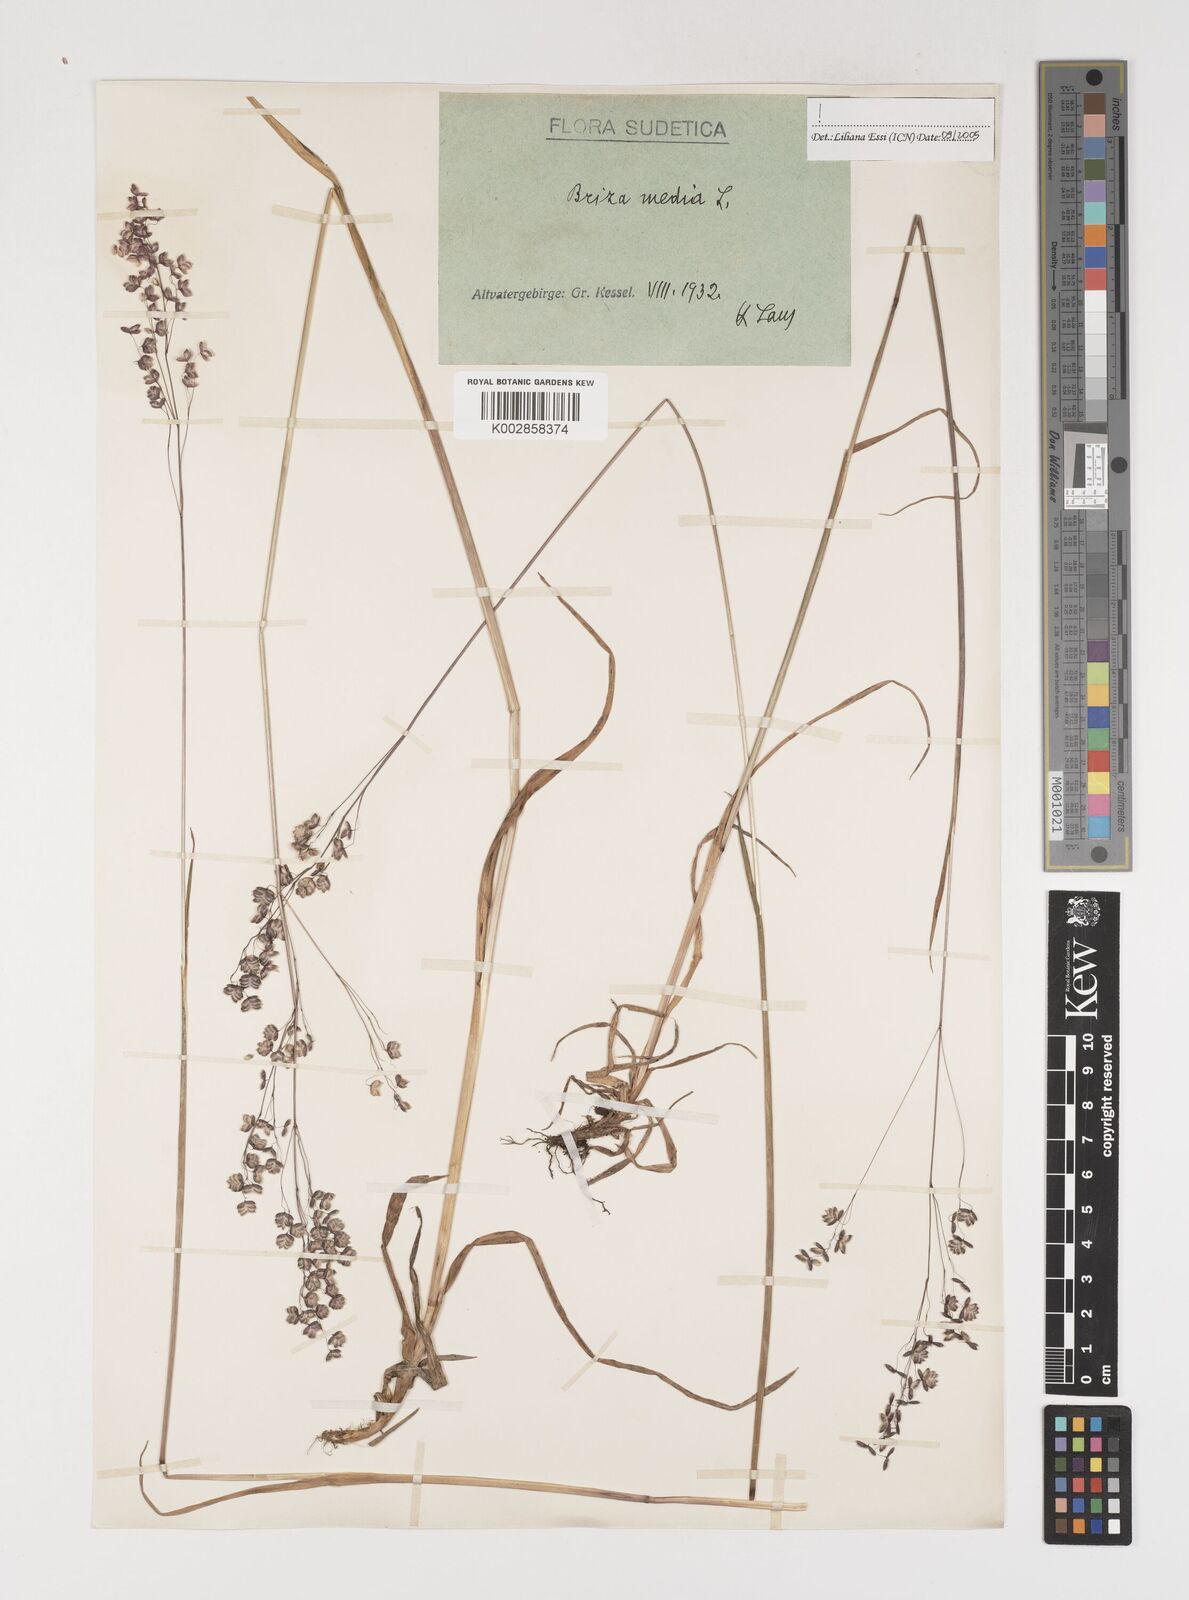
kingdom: Plantae
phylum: Tracheophyta
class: Liliopsida
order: Poales
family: Poaceae
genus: Briza
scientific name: Briza media
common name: Quaking grass
